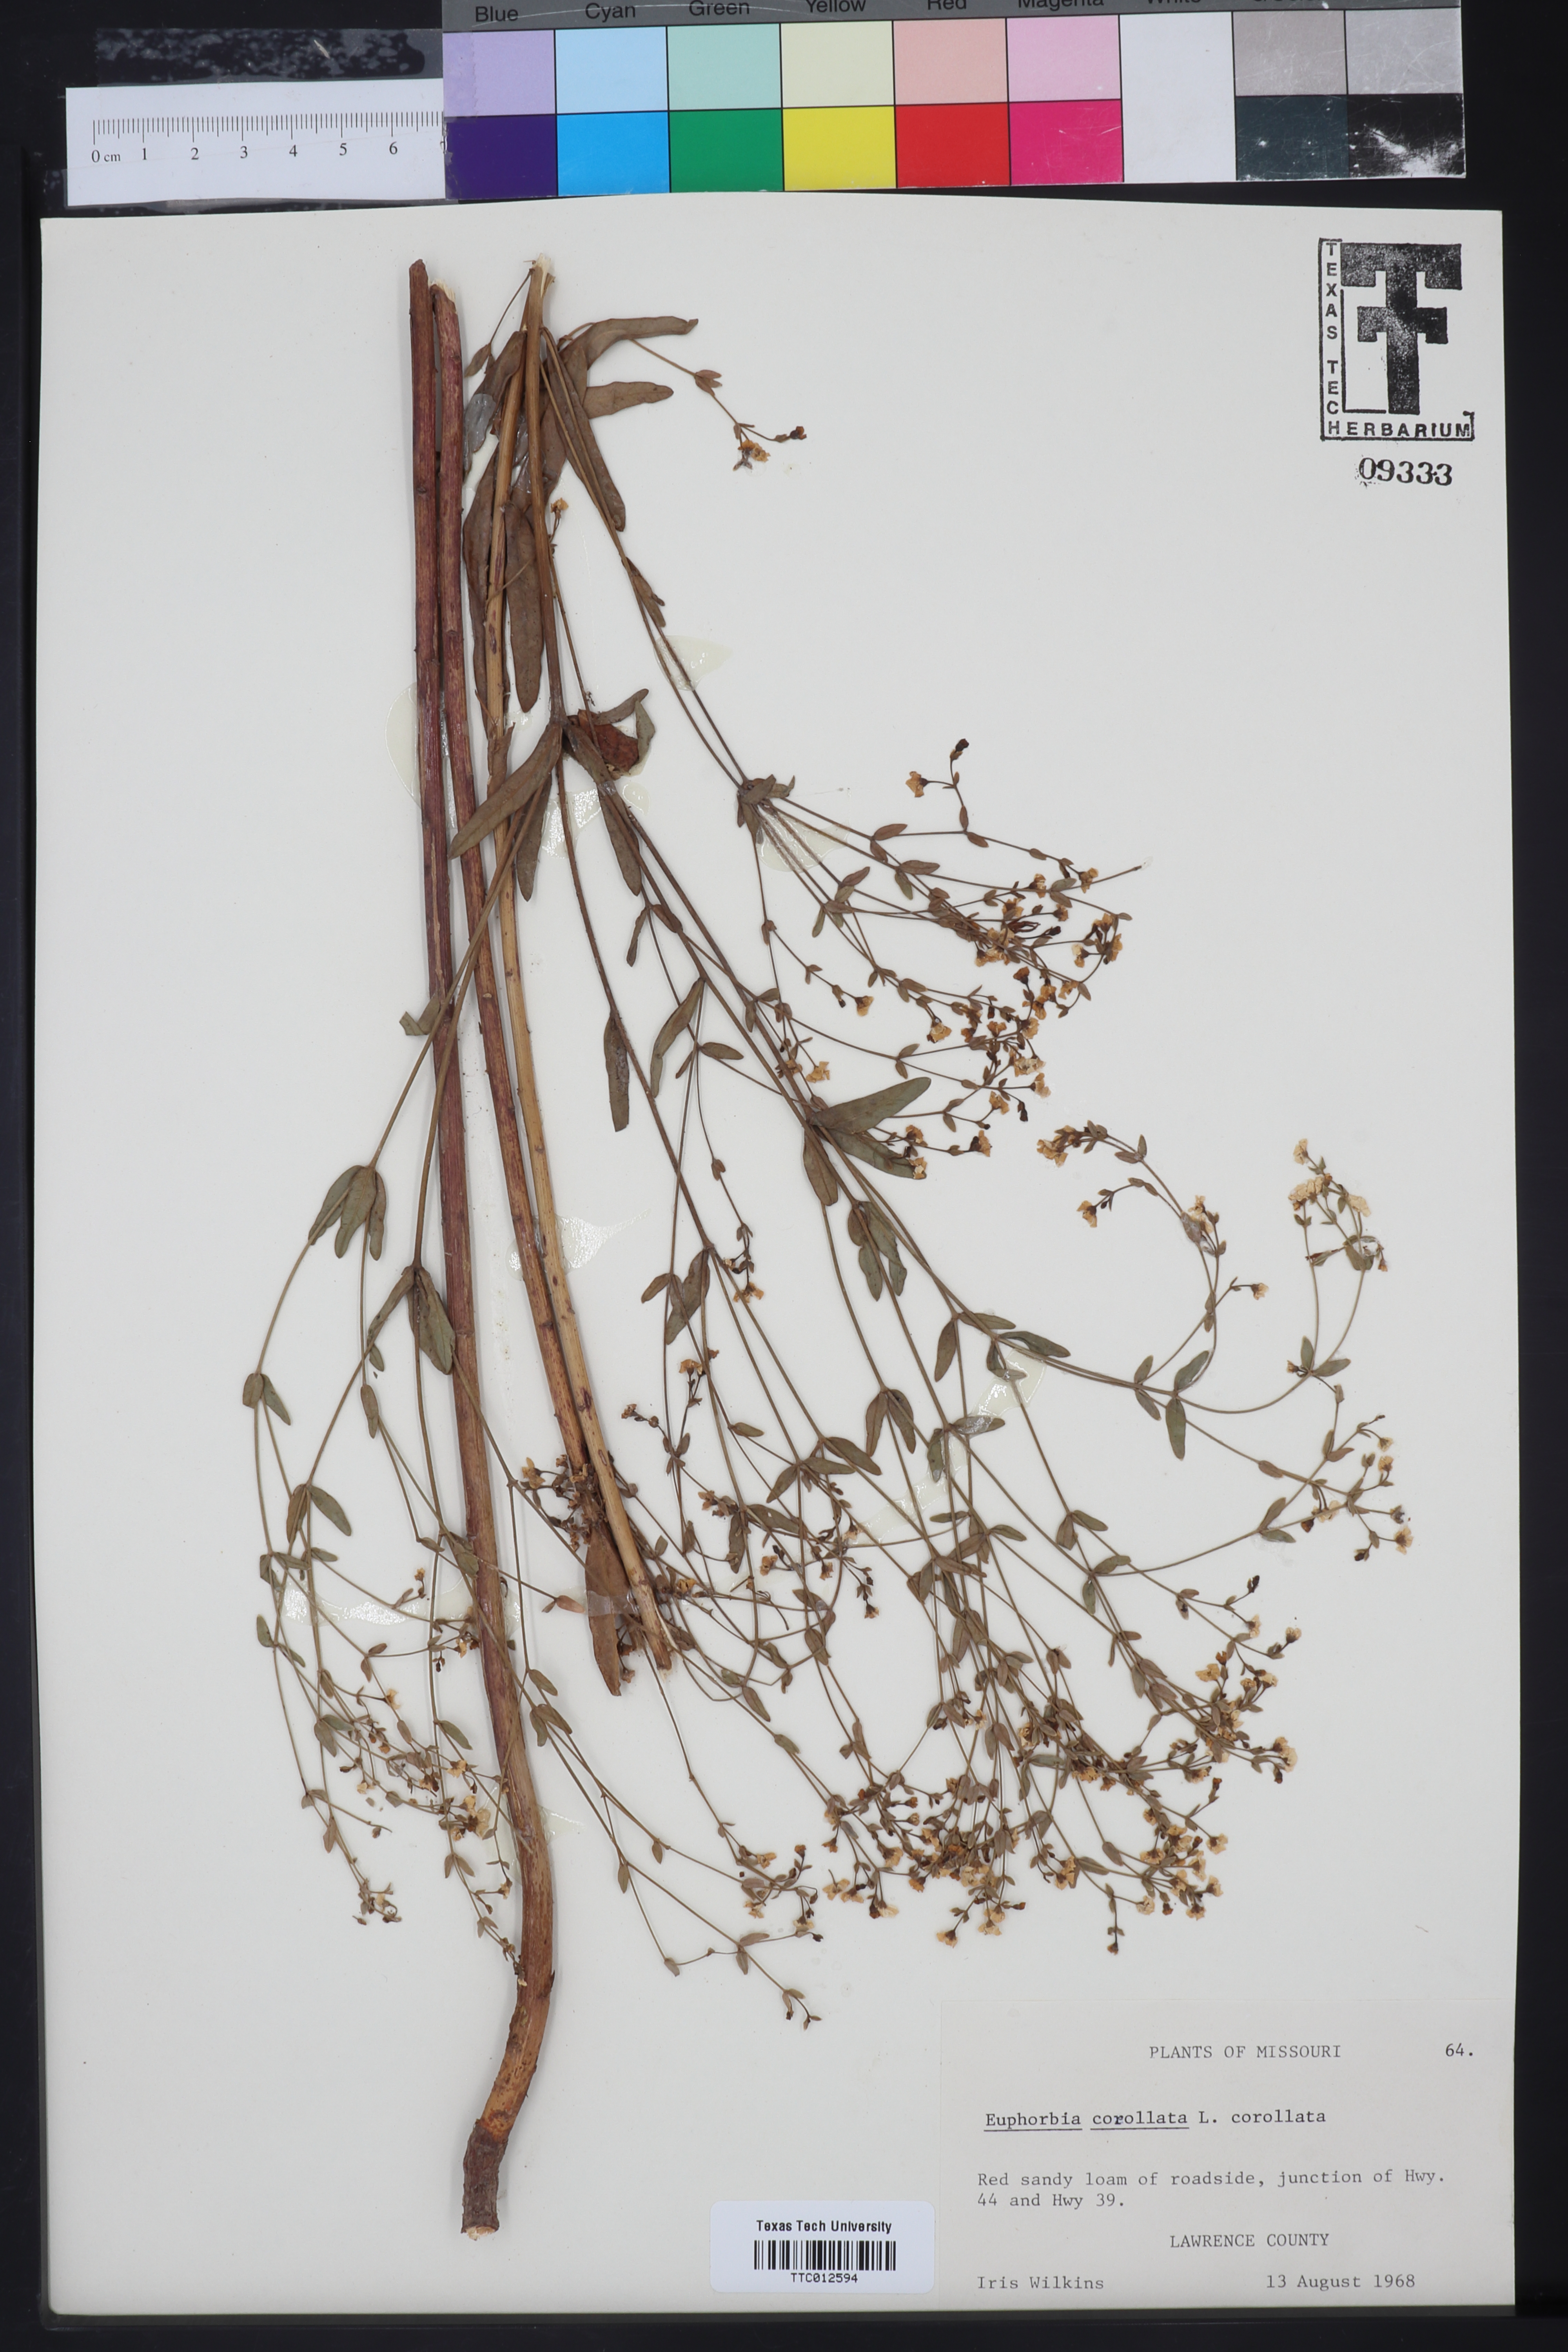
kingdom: Plantae
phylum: Tracheophyta
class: Magnoliopsida
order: Malpighiales
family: Euphorbiaceae
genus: Euphorbia
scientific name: Euphorbia corollata
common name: Flowering spurge
